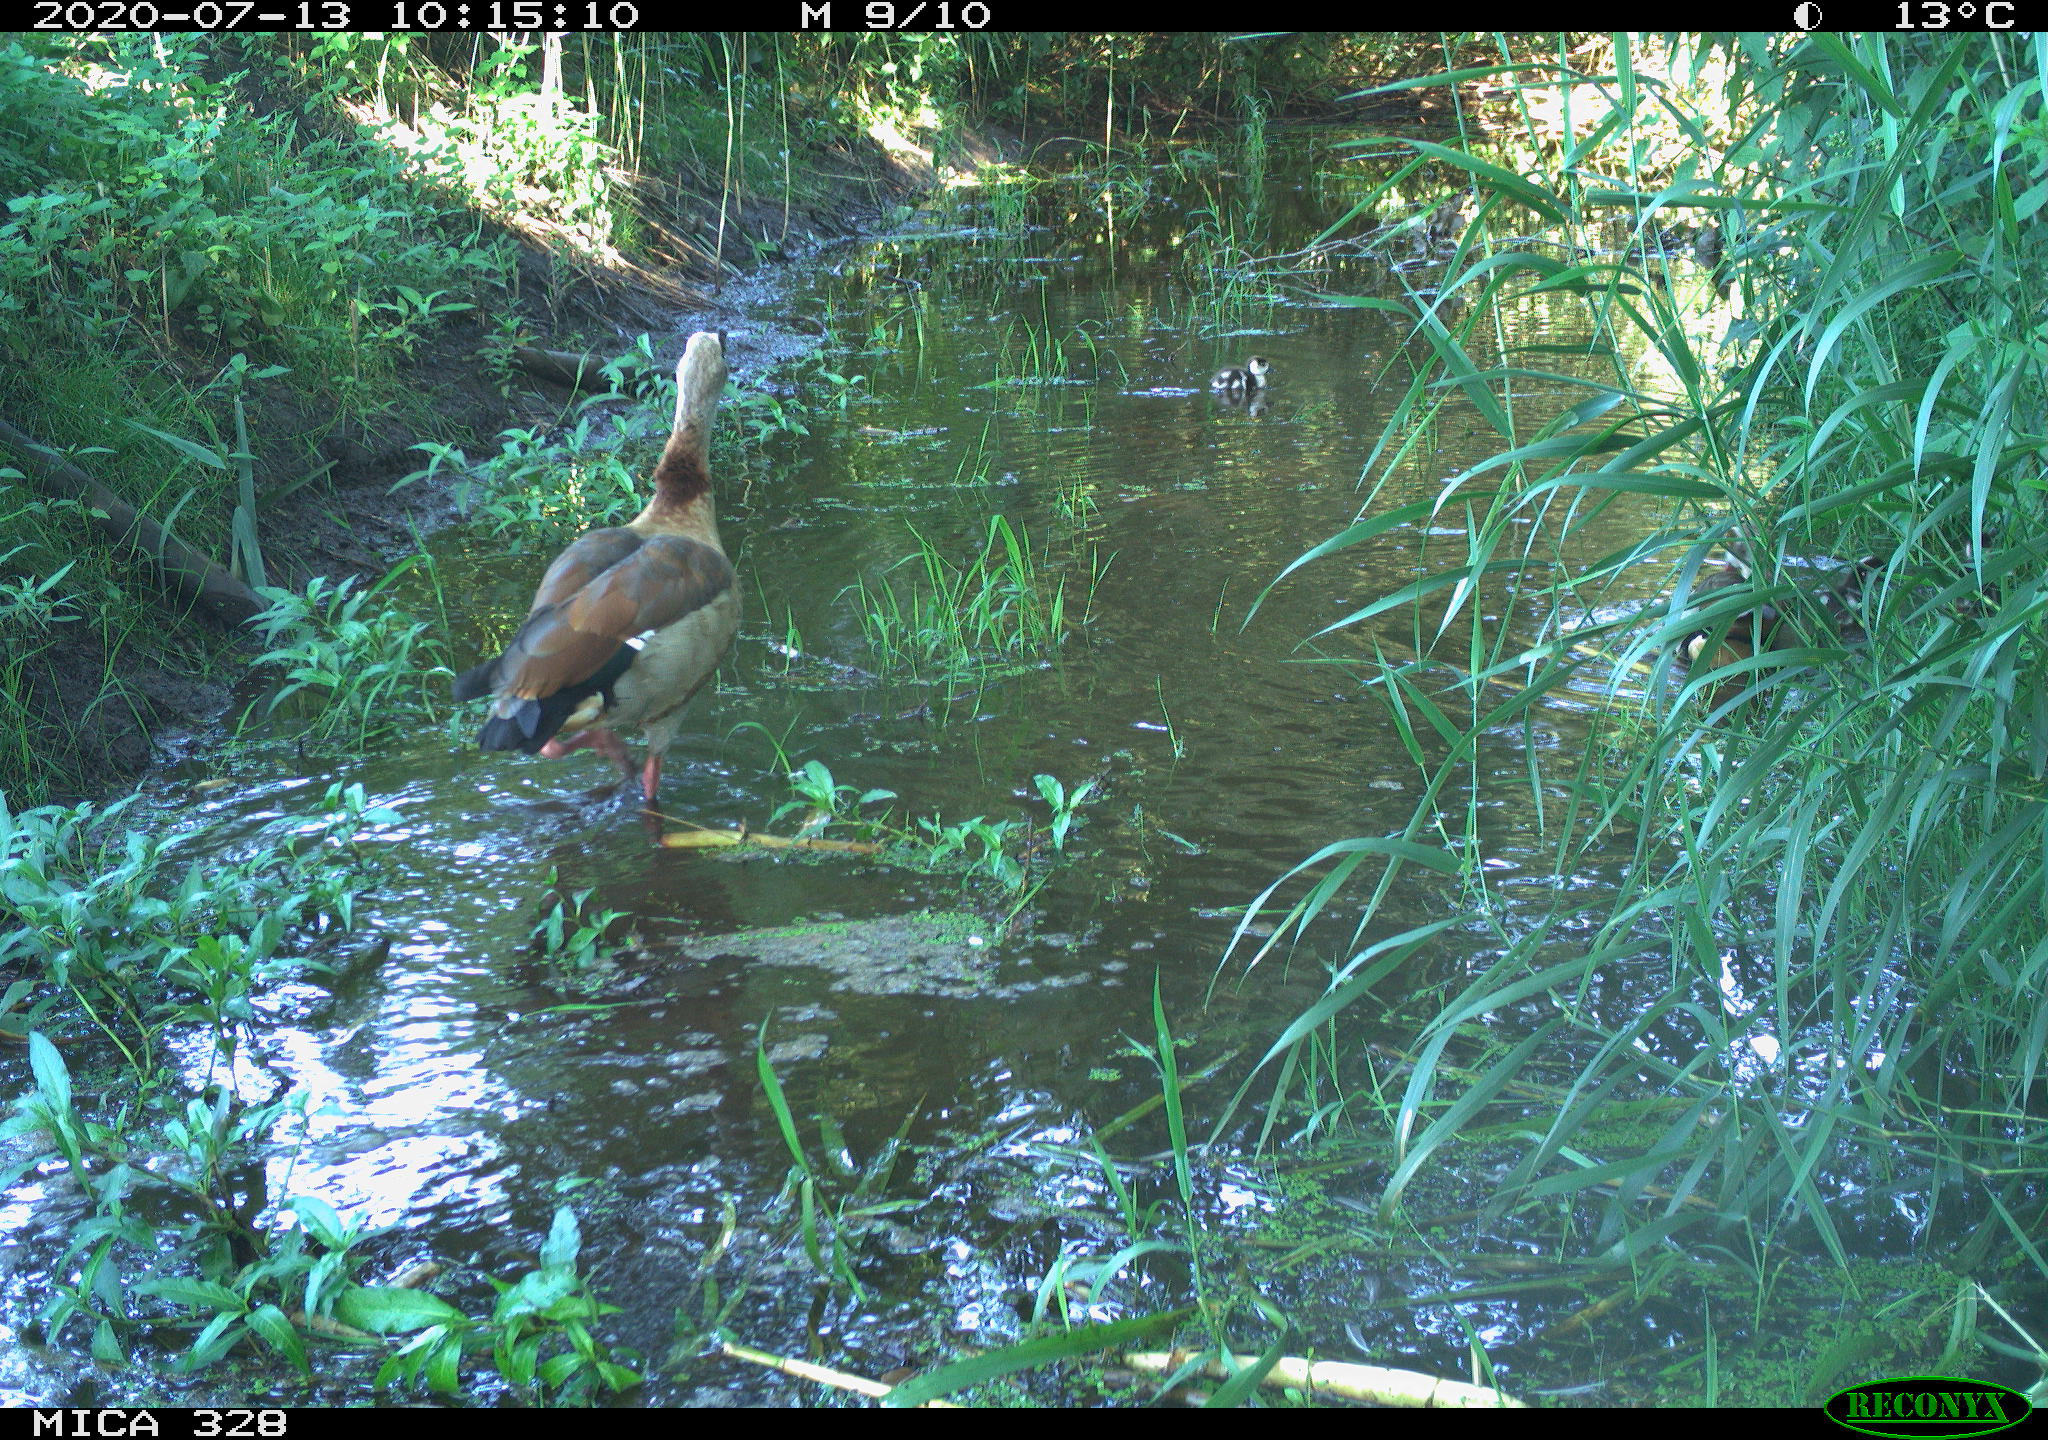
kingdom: Animalia
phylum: Chordata
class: Aves
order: Anseriformes
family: Anatidae
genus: Alopochen
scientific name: Alopochen aegyptiaca
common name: Egyptian goose
